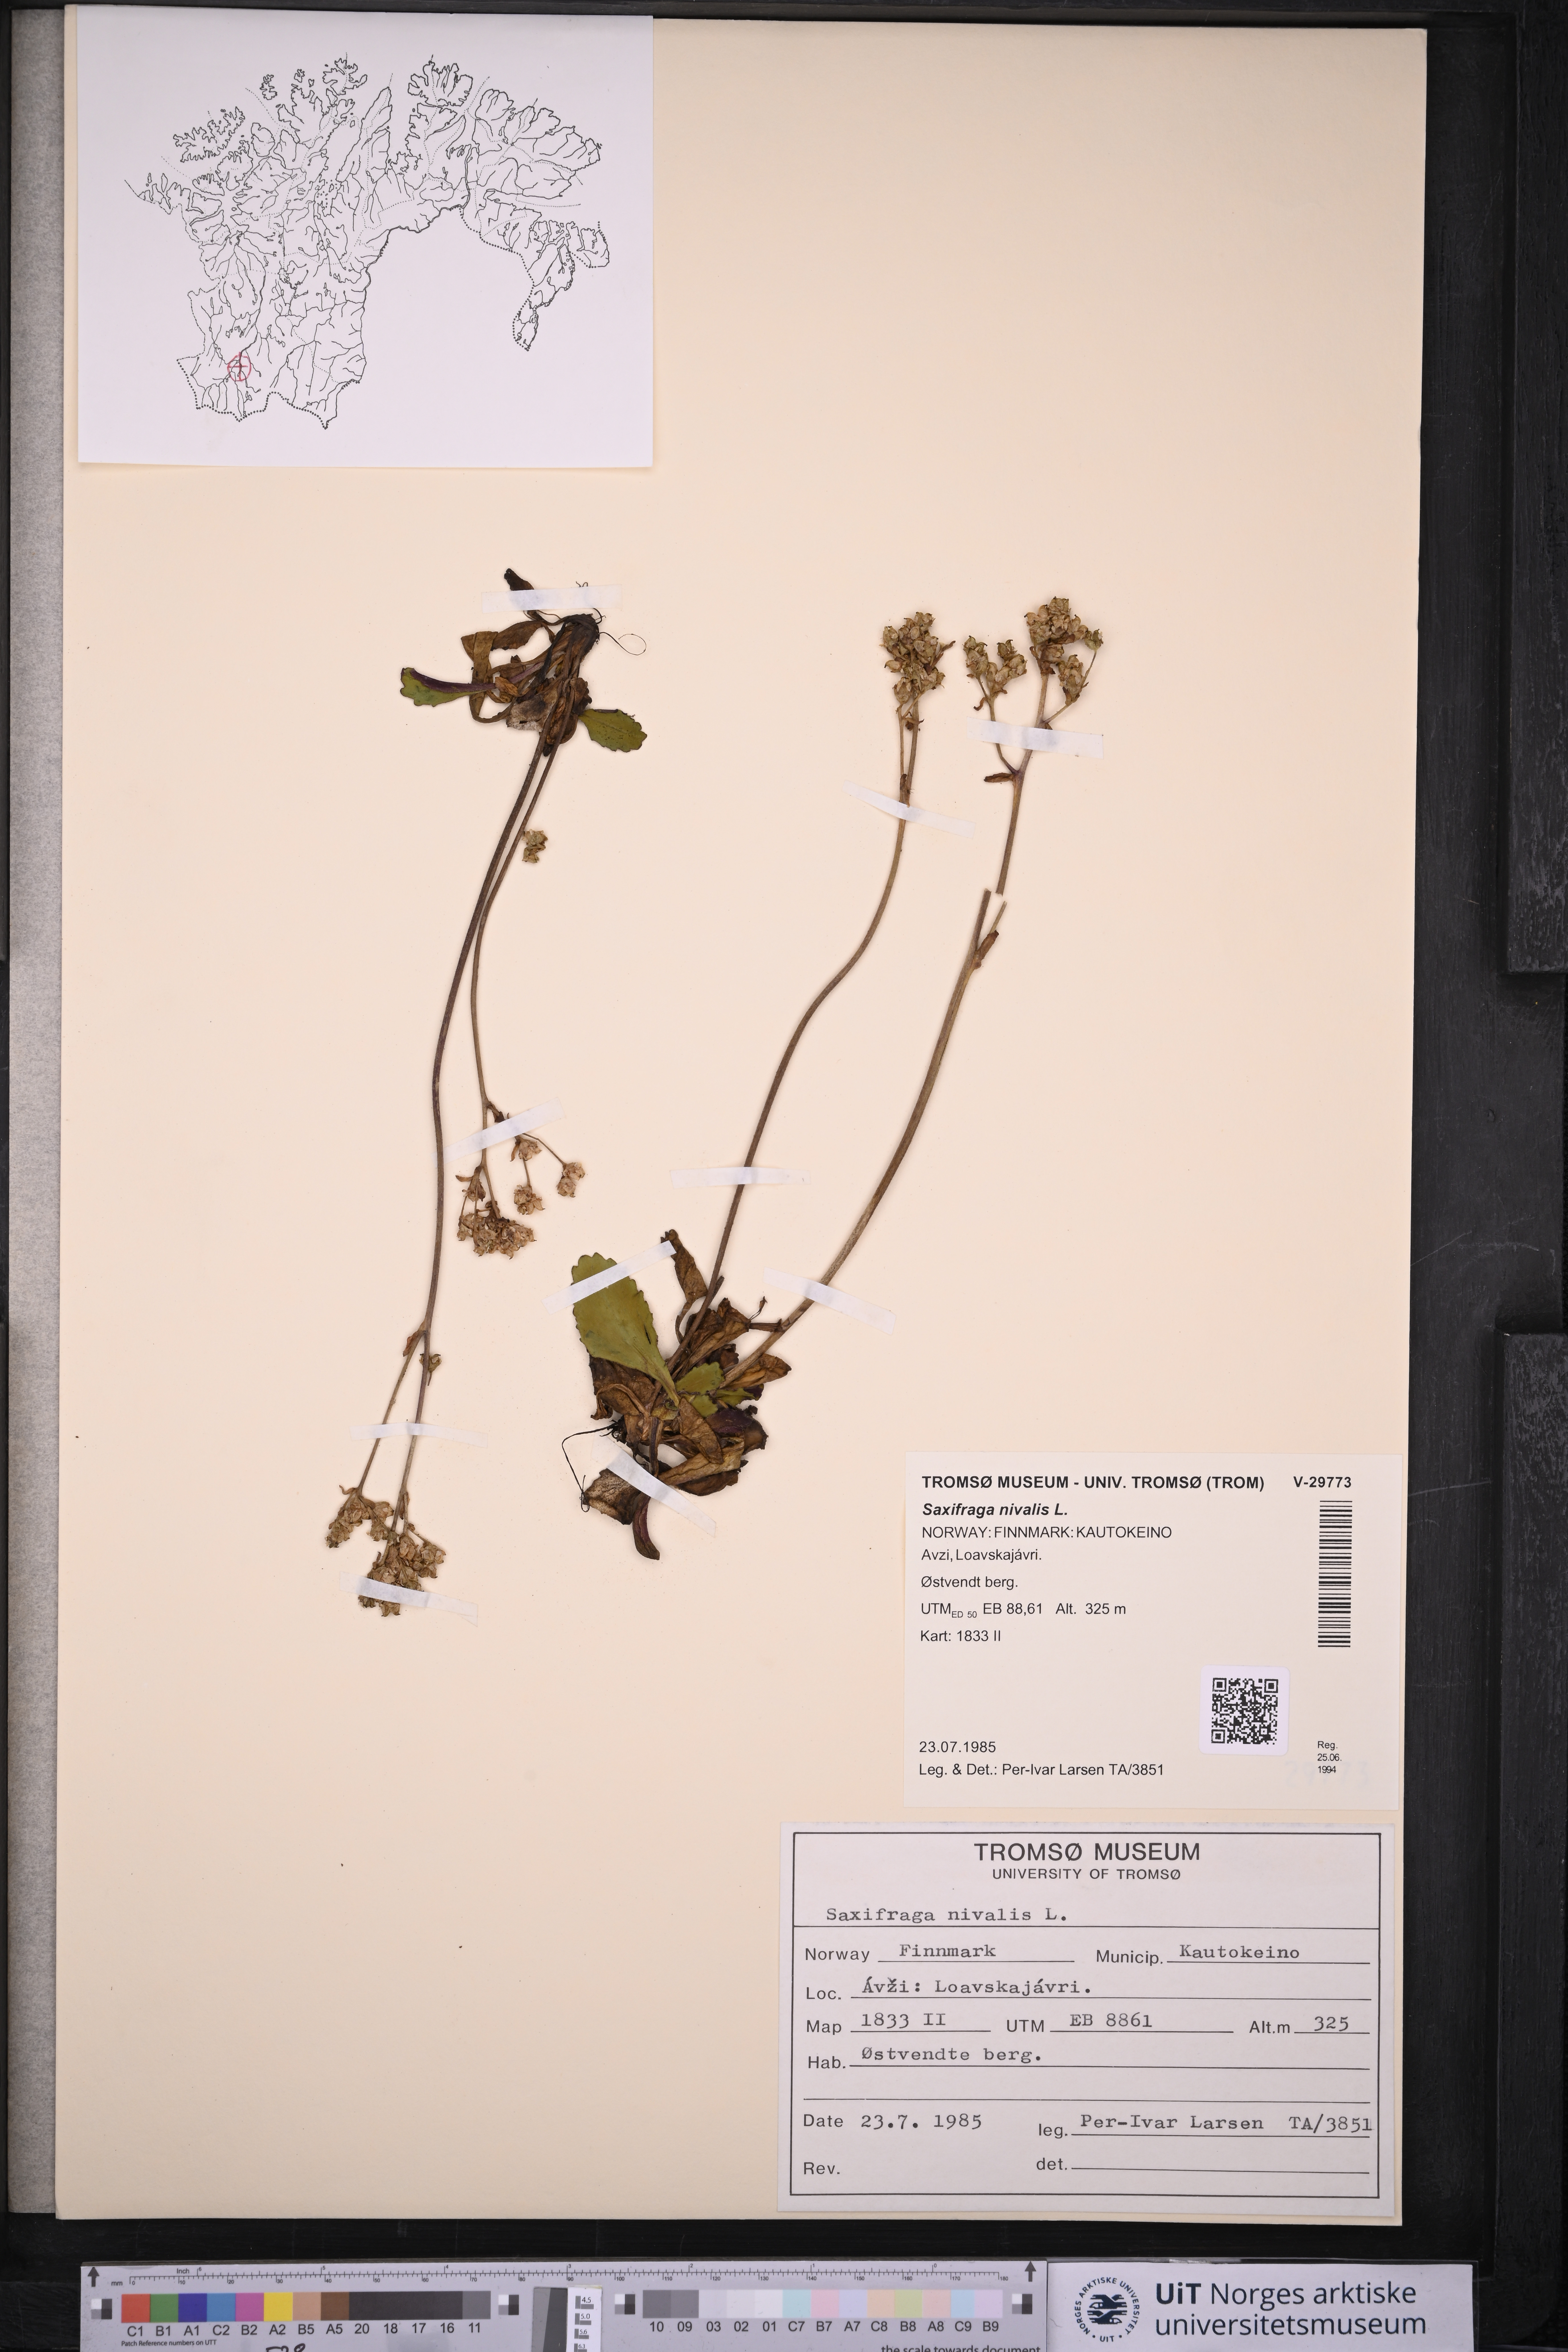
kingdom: Plantae
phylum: Tracheophyta
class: Magnoliopsida
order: Saxifragales
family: Saxifragaceae
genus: Micranthes
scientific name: Micranthes nivalis
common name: Alpine saxifrage
